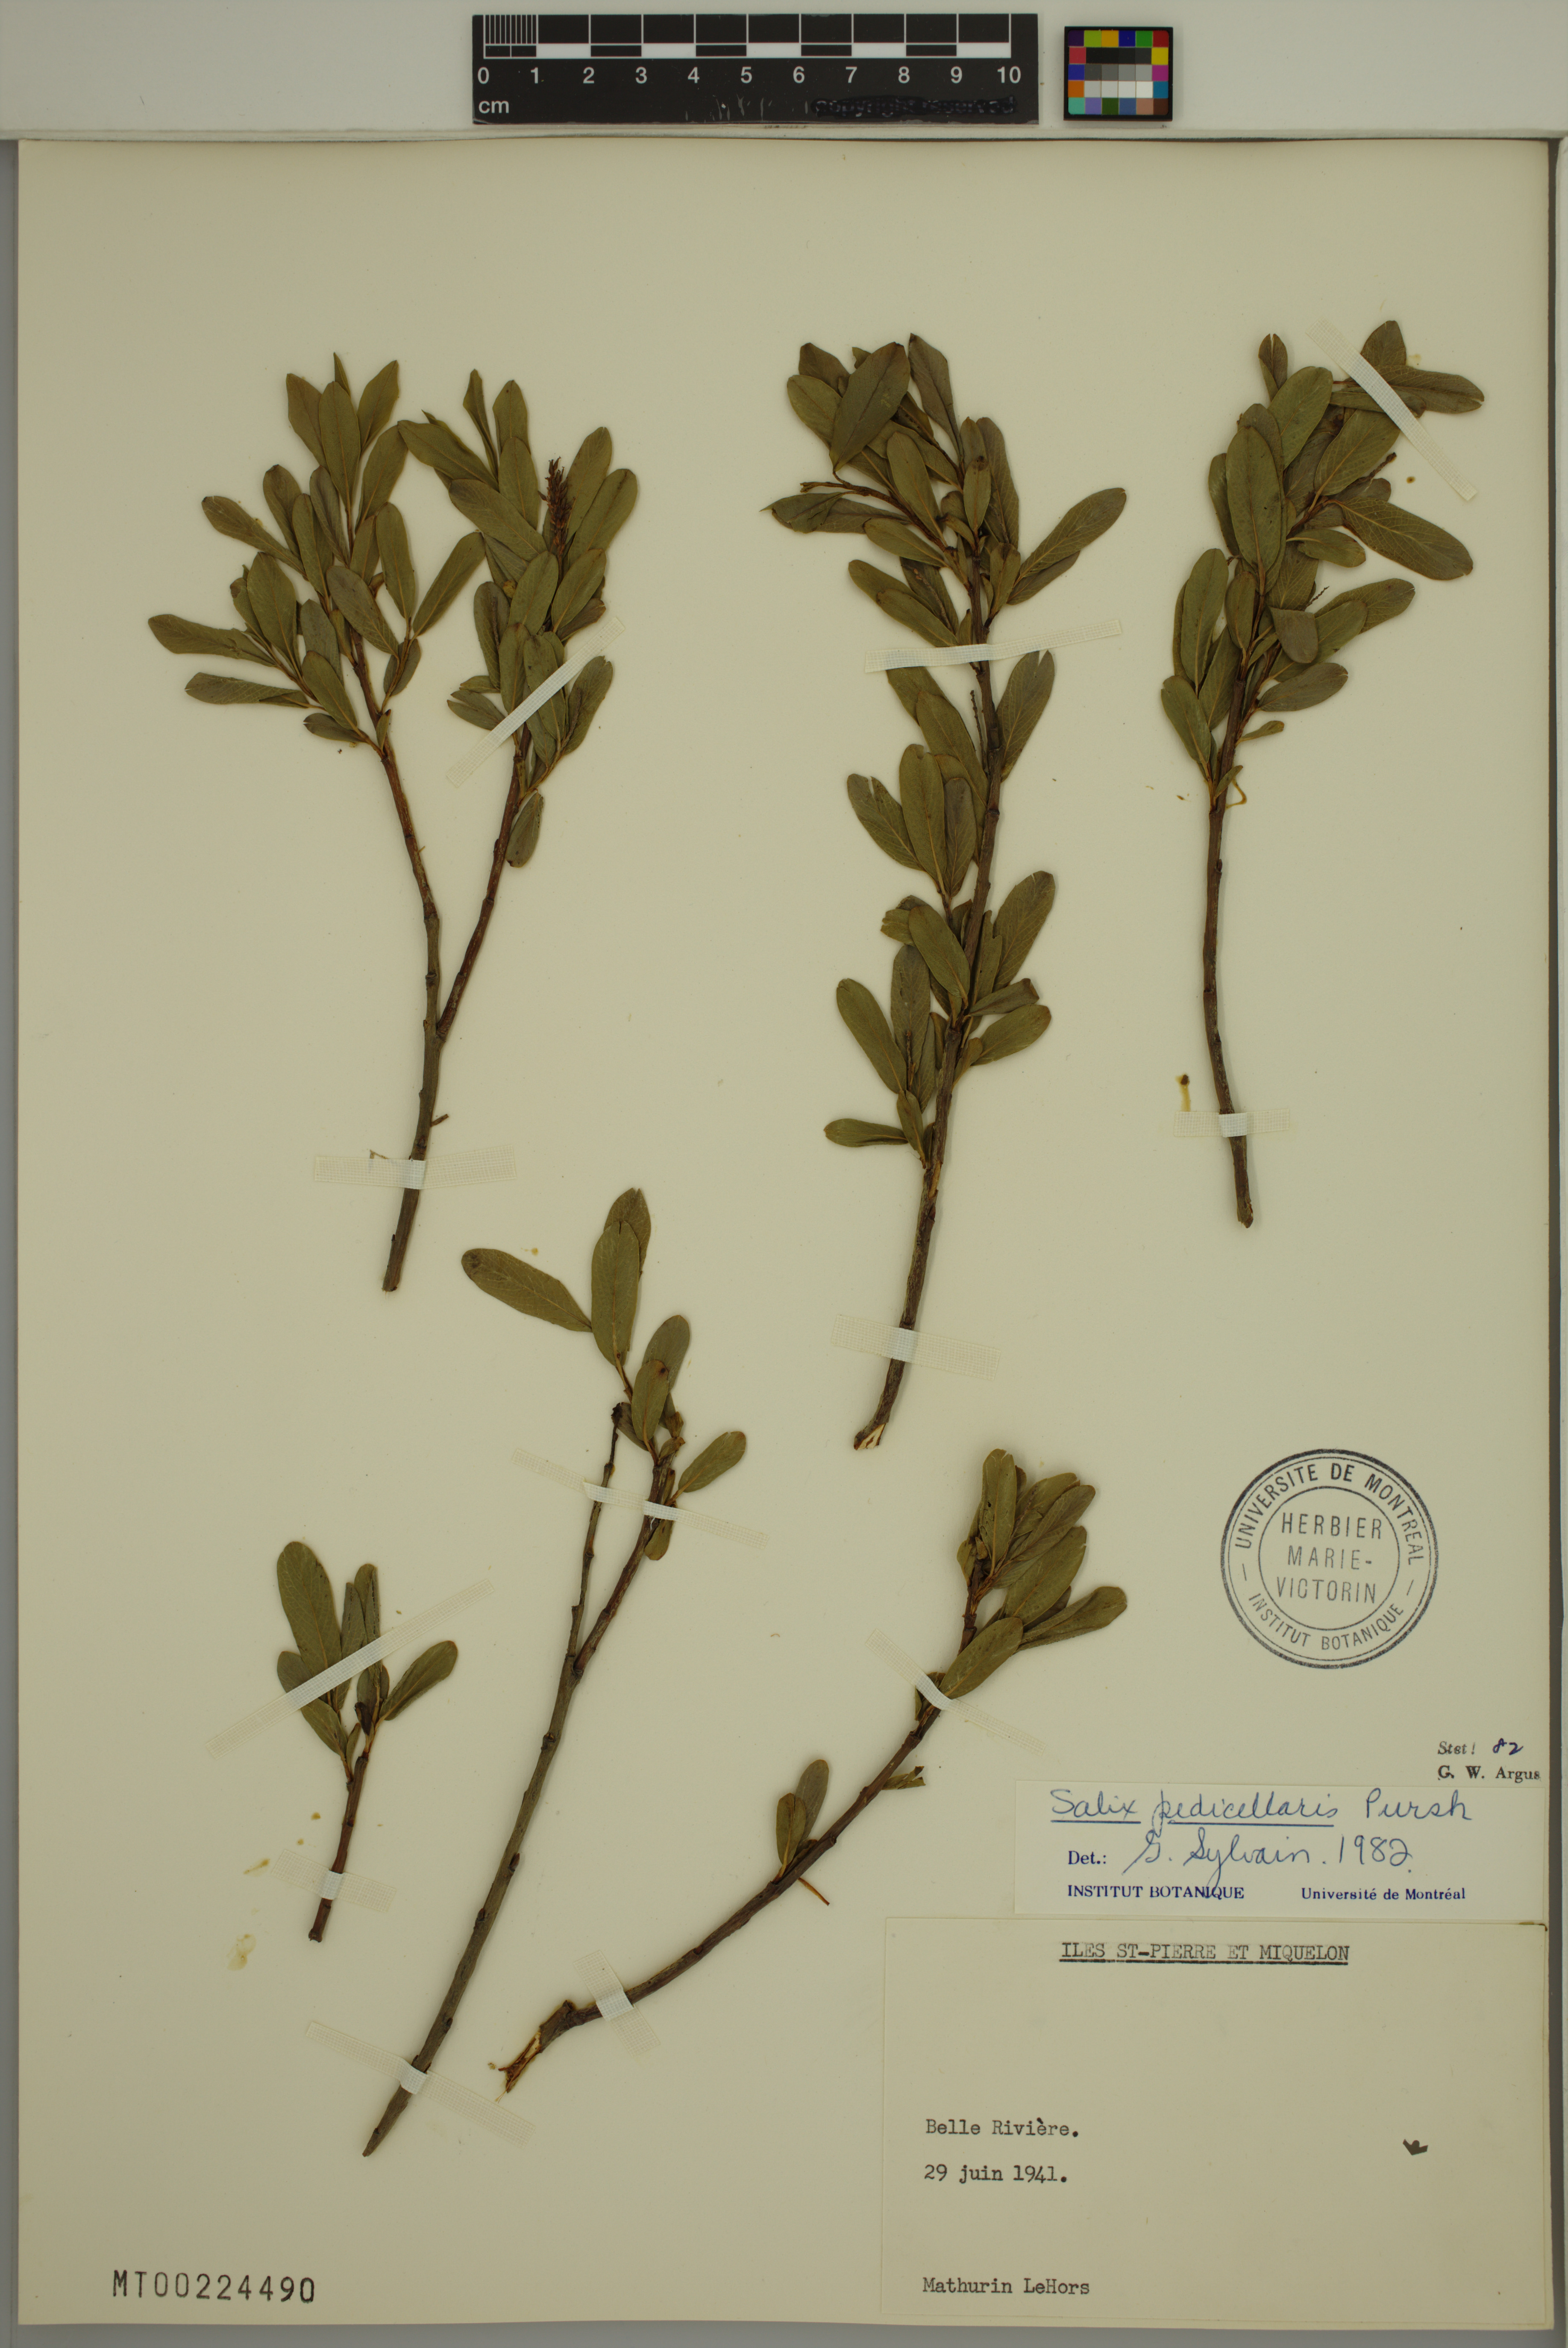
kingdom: Plantae
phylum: Tracheophyta
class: Magnoliopsida
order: Malpighiales
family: Salicaceae
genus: Salix
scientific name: Salix pedicellaris
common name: Bog willow
